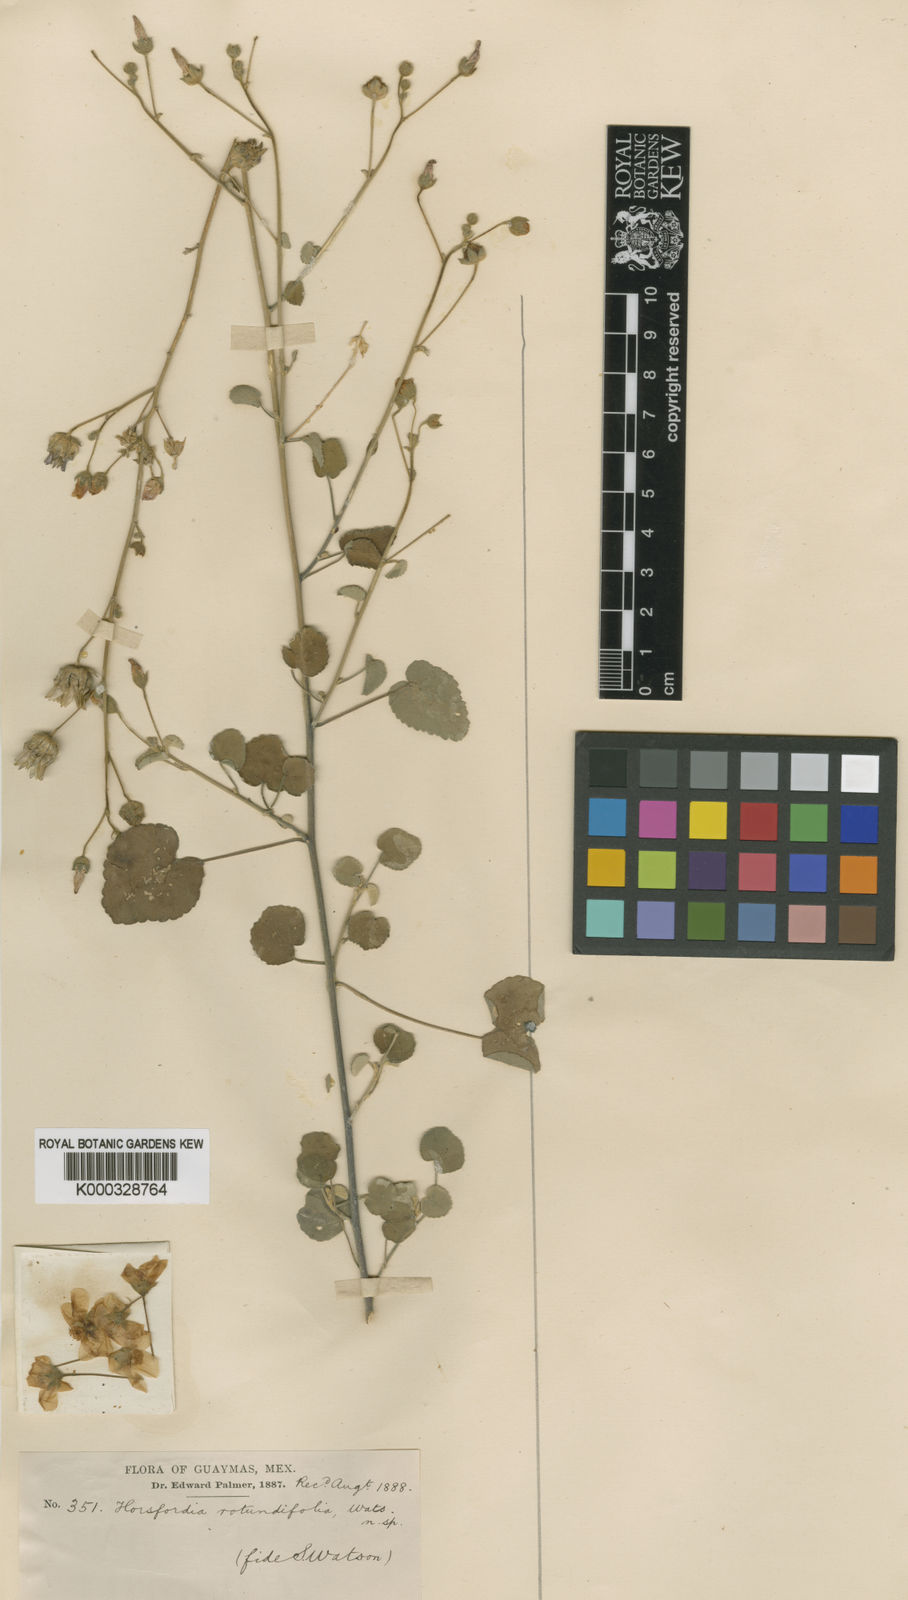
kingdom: Plantae
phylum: Tracheophyta
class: Magnoliopsida
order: Malvales
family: Malvaceae
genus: Horsfordia
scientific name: Horsfordia rotundifolia
